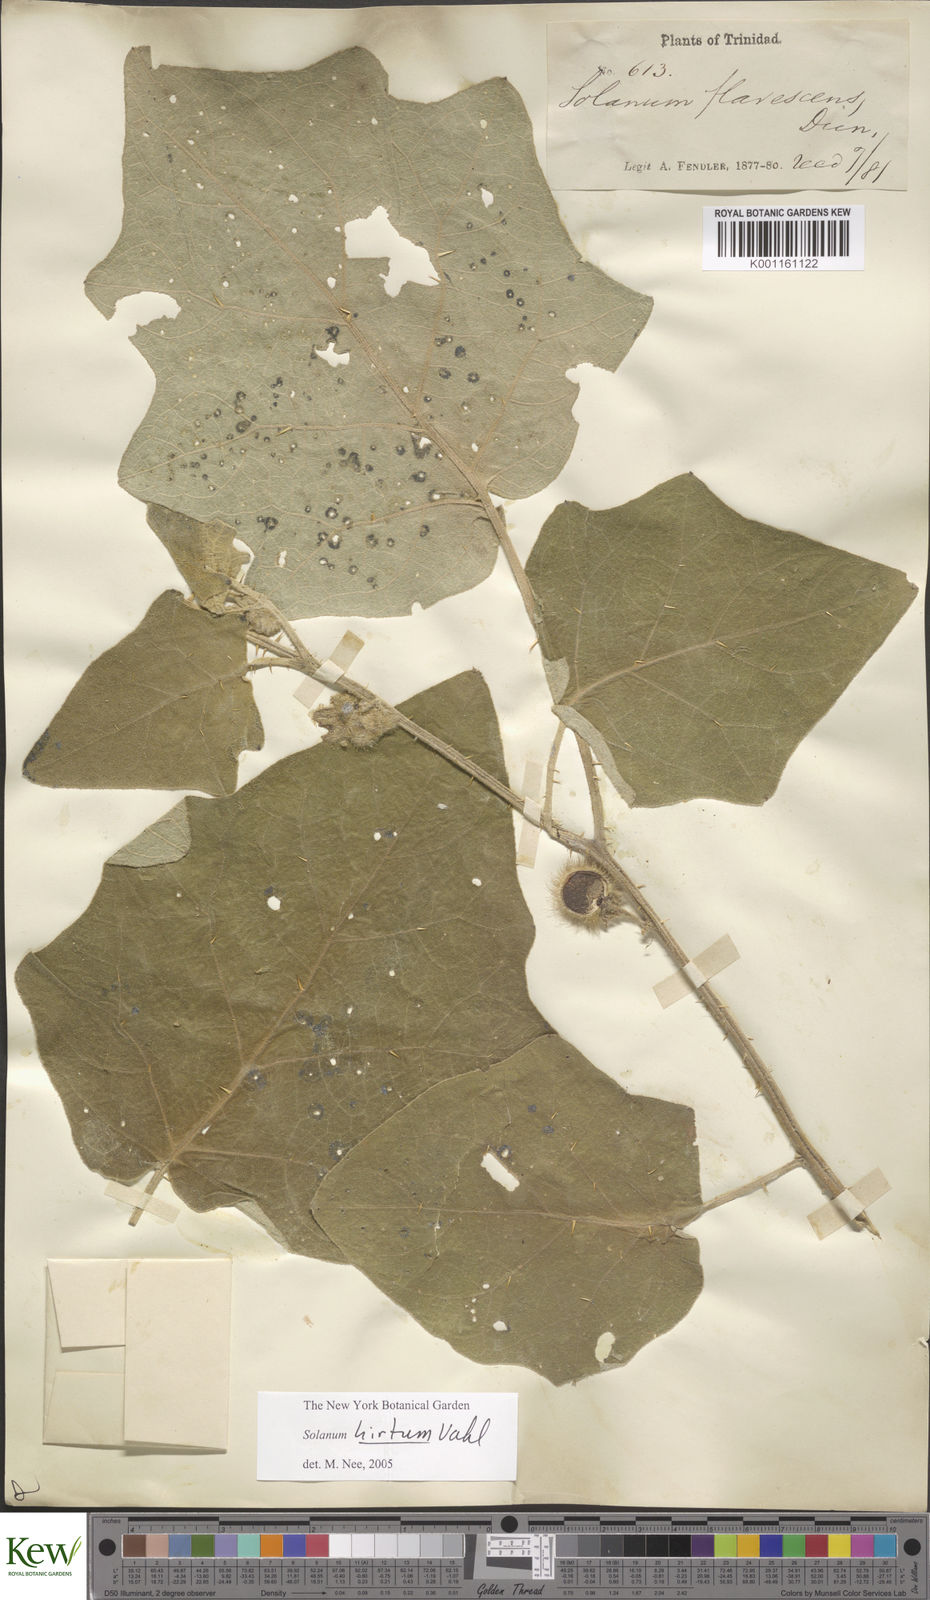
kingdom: Plantae
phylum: Tracheophyta
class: Magnoliopsida
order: Solanales
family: Solanaceae
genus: Solanum
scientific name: Solanum hirtum
